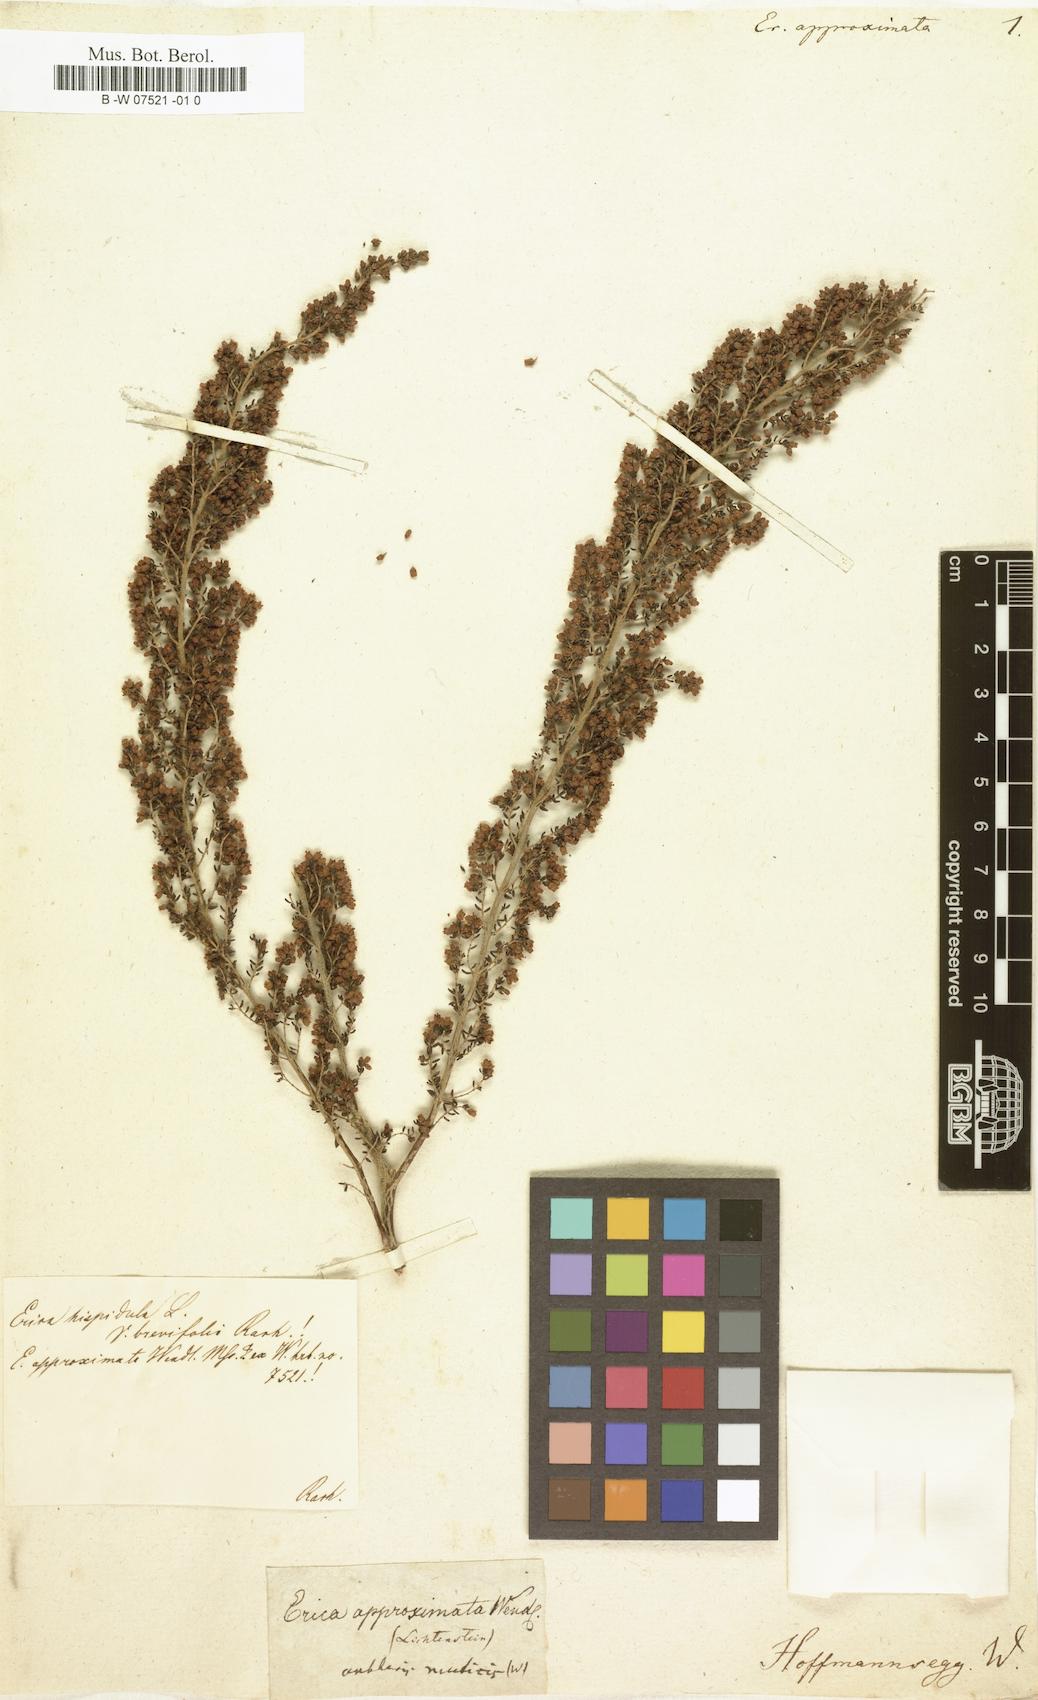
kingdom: Plantae
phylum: Tracheophyta
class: Magnoliopsida
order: Ericales
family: Ericaceae
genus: Erica
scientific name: Erica hispidula
